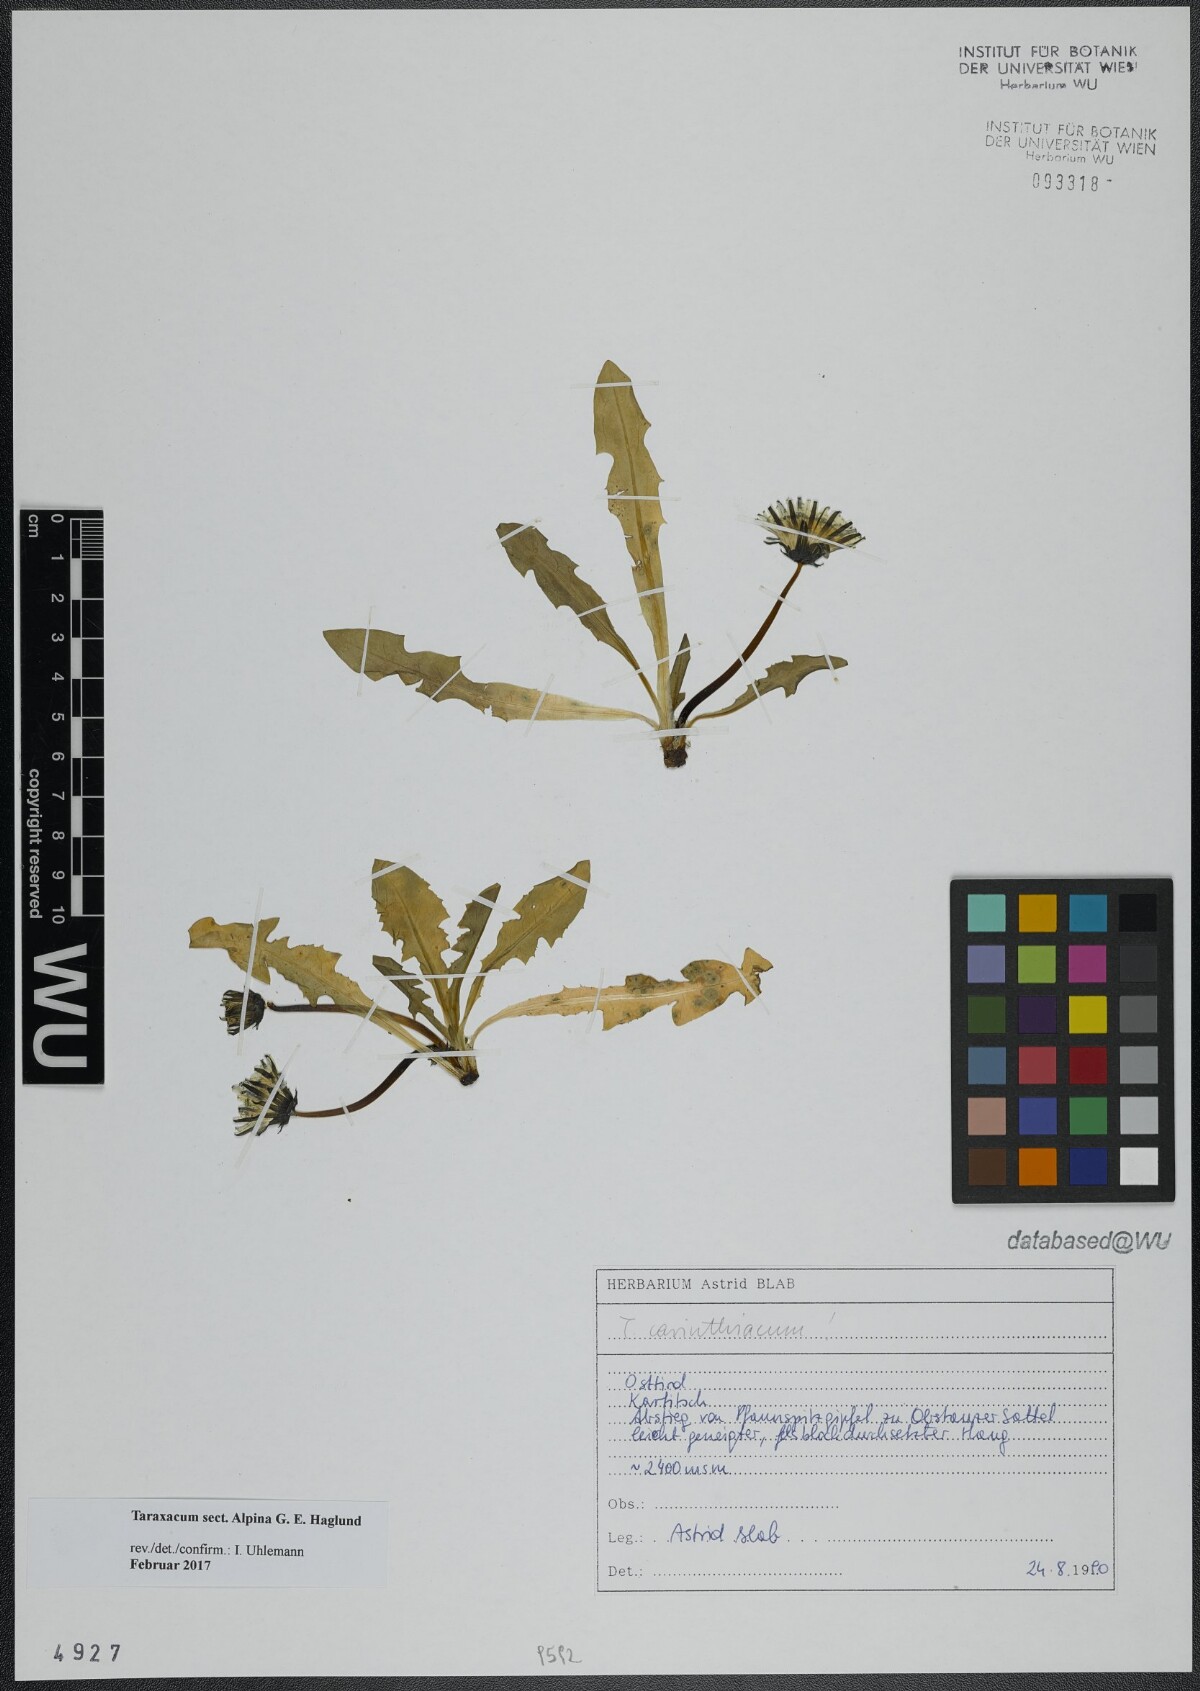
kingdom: Plantae
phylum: Tracheophyta
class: Magnoliopsida
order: Asterales
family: Asteraceae
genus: Taraxacum
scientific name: Taraxacum
